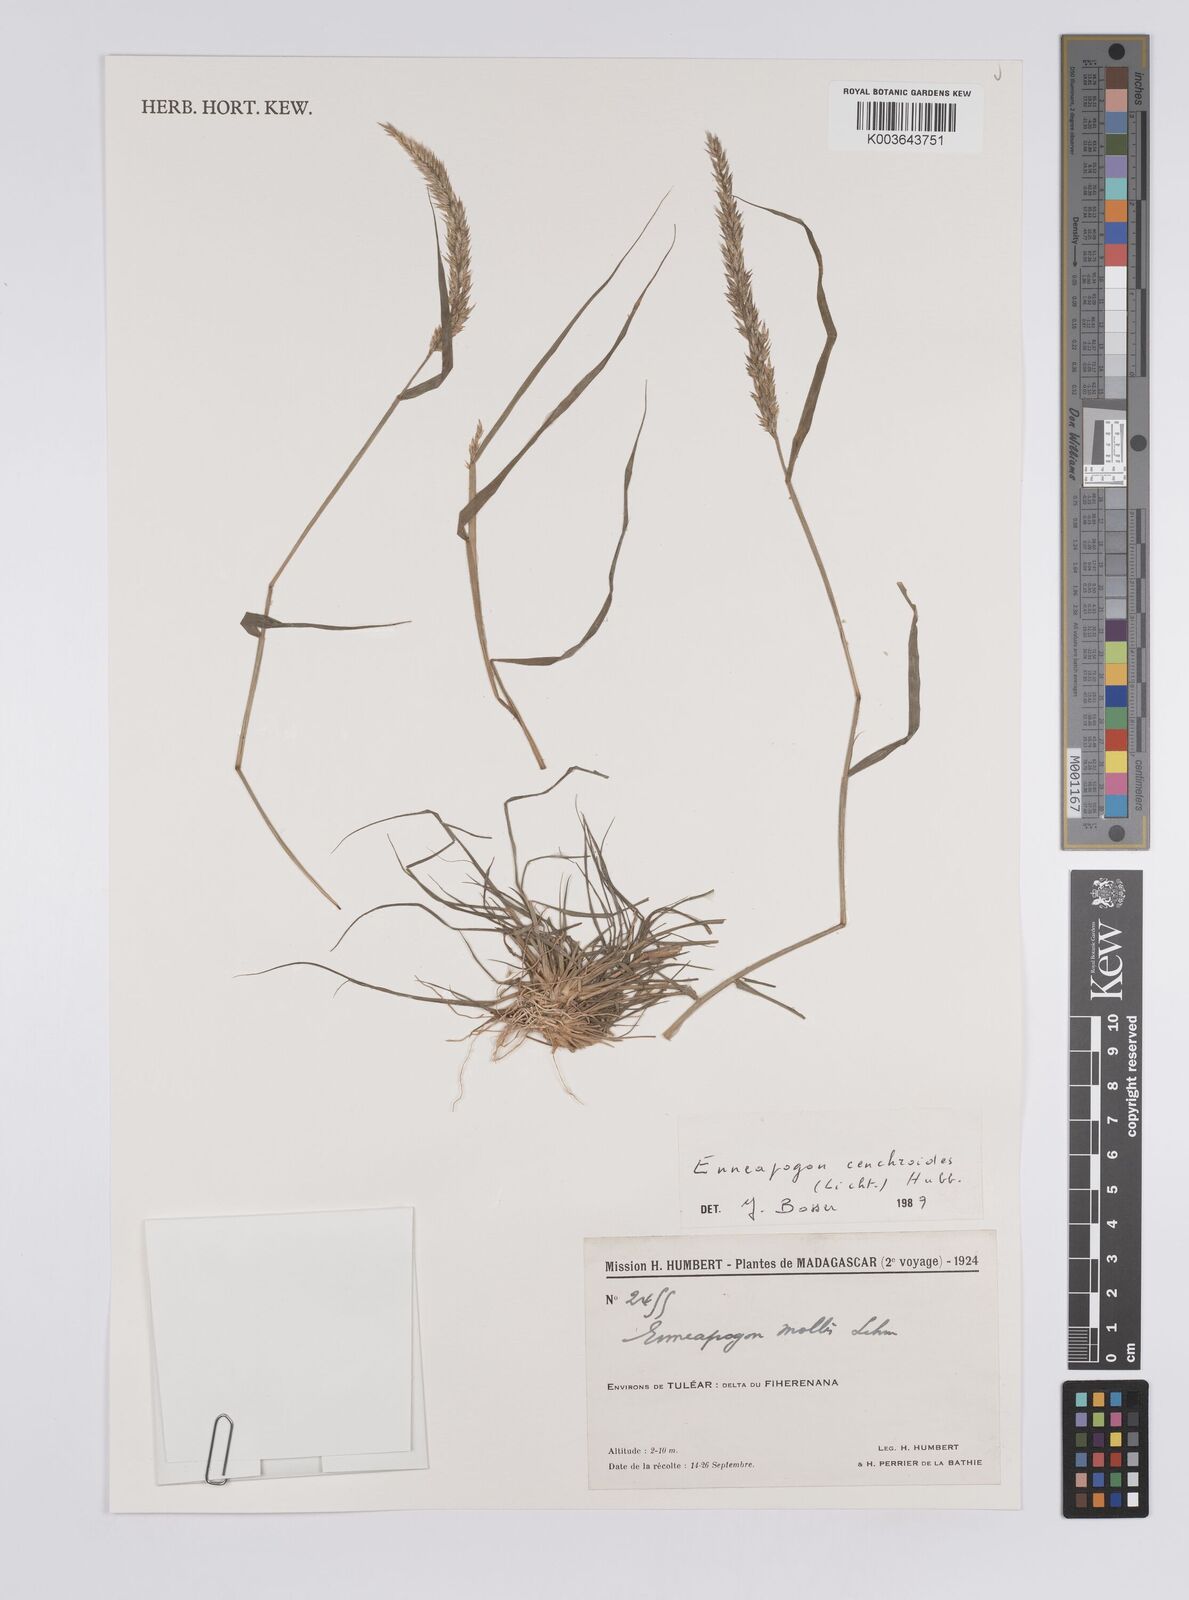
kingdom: Plantae
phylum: Tracheophyta
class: Liliopsida
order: Poales
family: Poaceae
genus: Enneapogon
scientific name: Enneapogon cenchroides
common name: Soft feather pappusgrass
